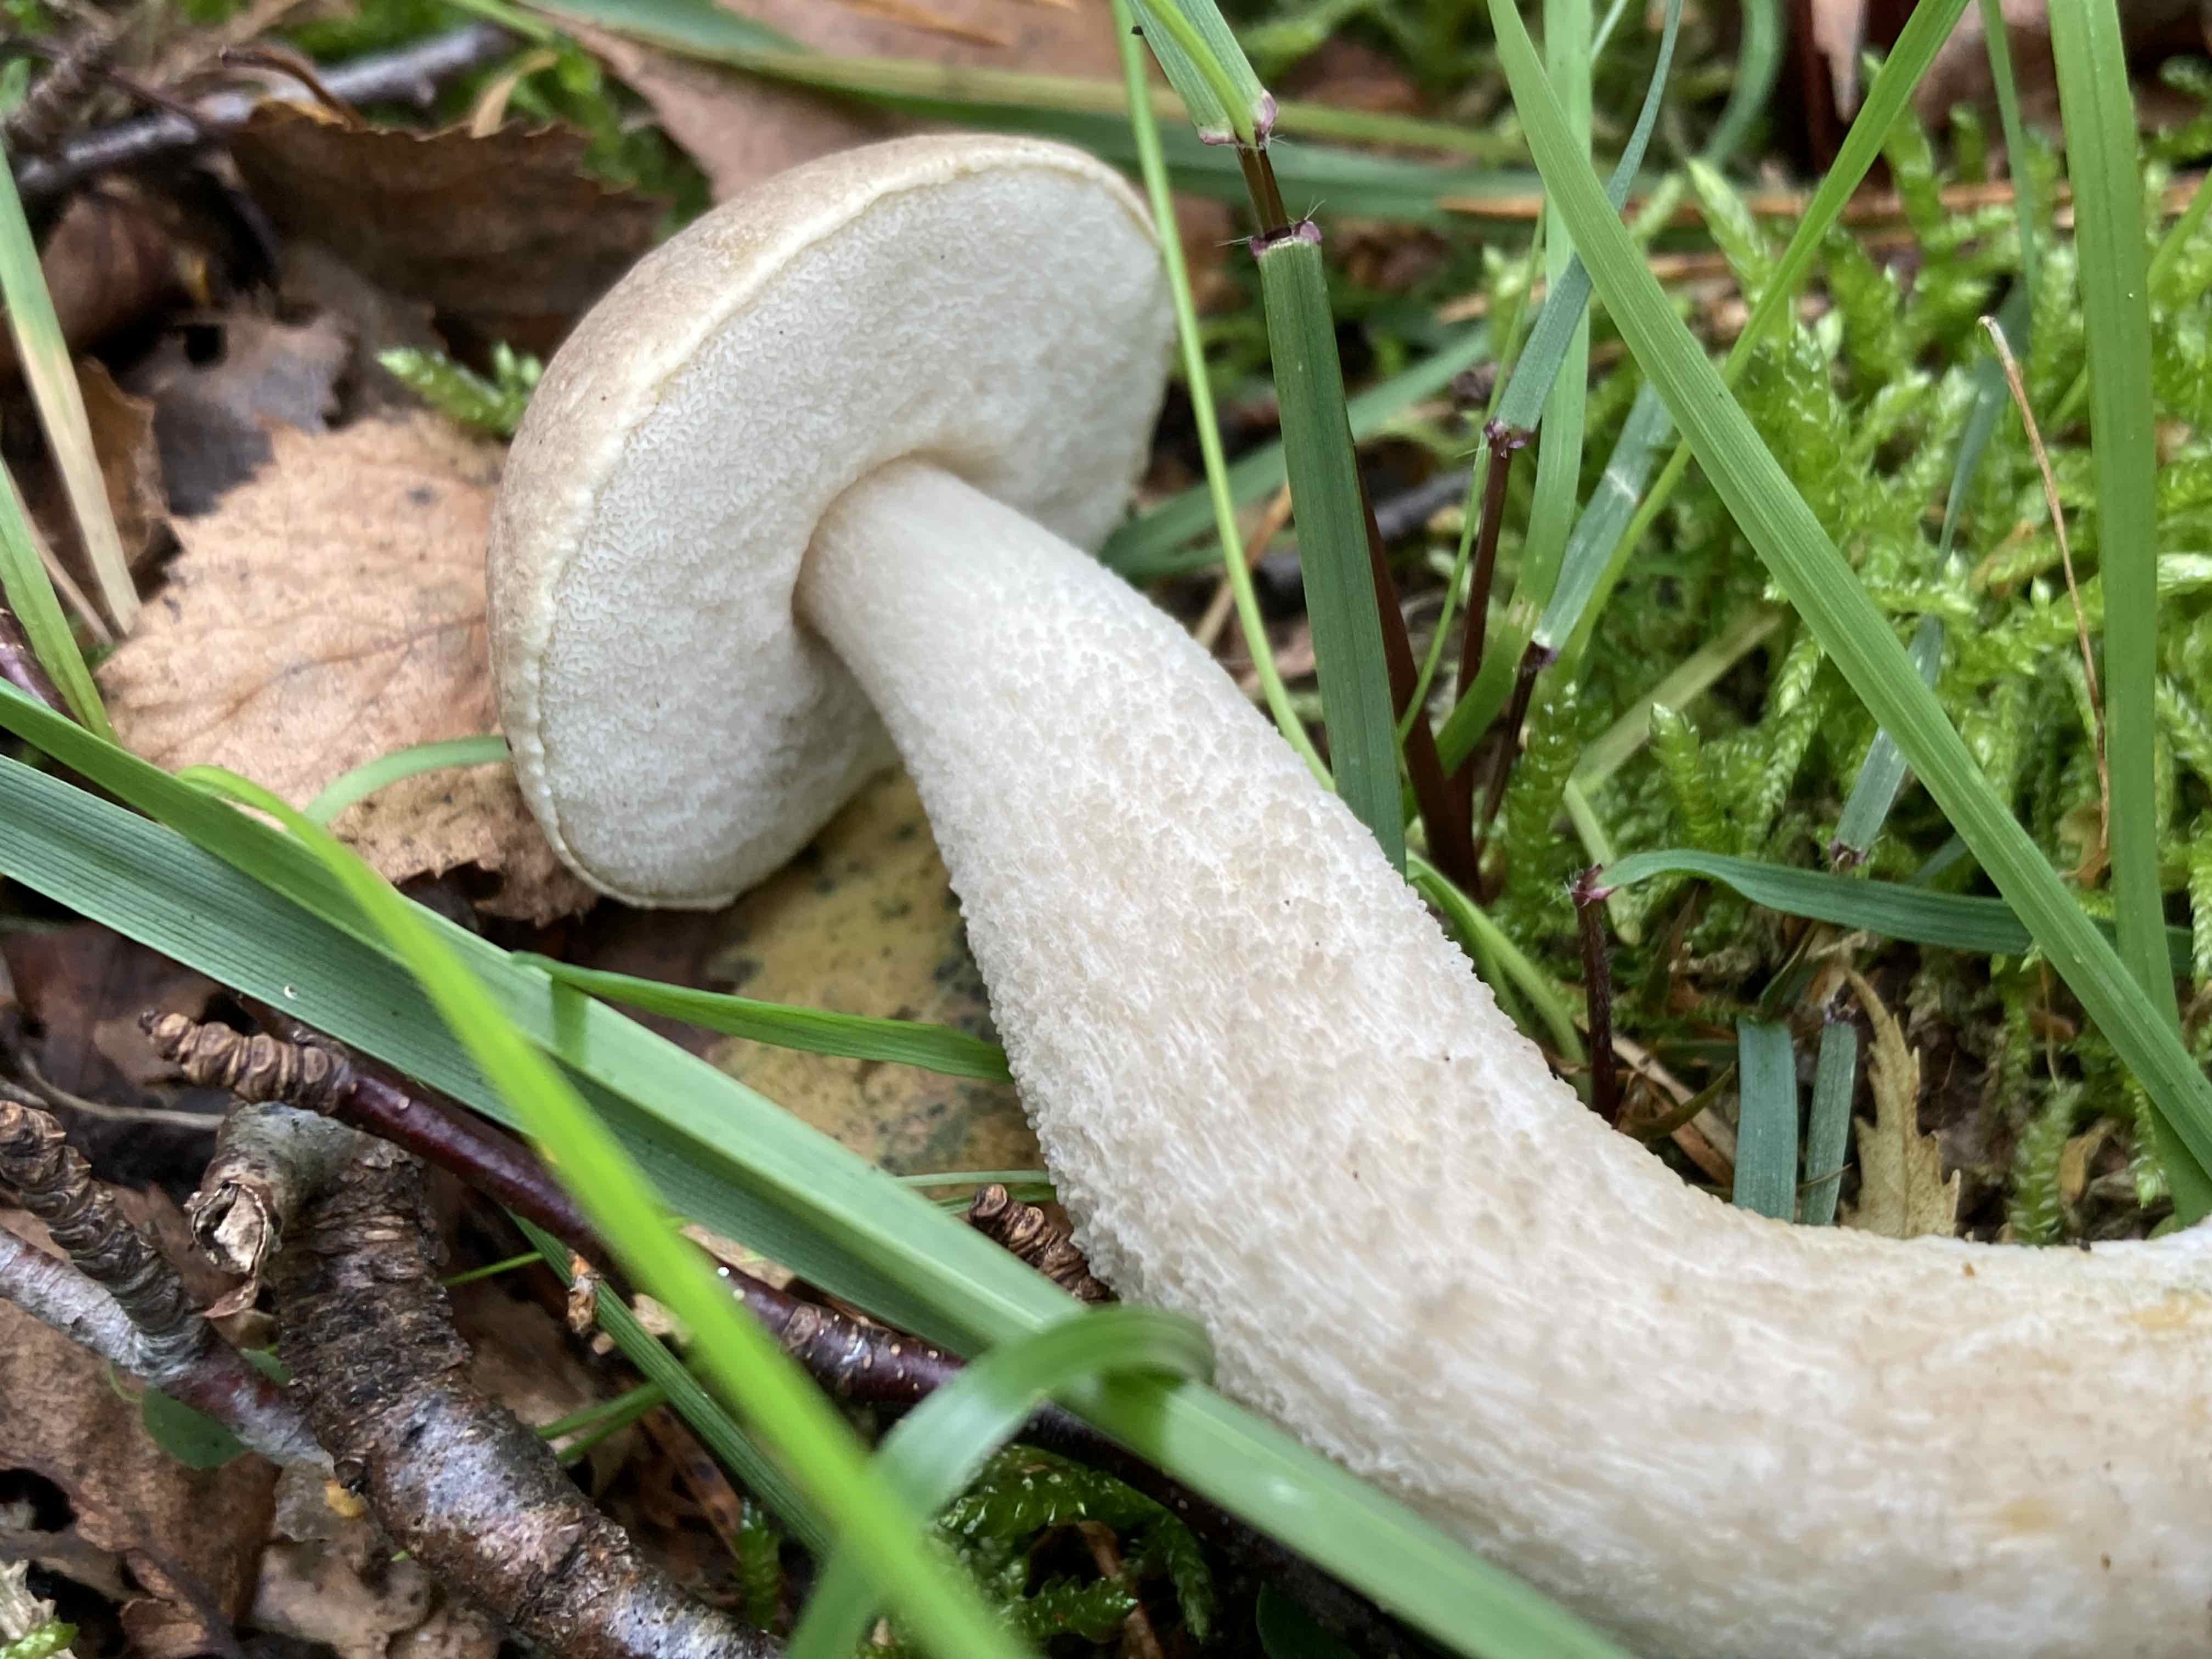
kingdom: Fungi
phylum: Basidiomycota
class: Agaricomycetes
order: Boletales
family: Boletaceae
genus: Leccinum
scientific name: Leccinum
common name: skælrørhat
